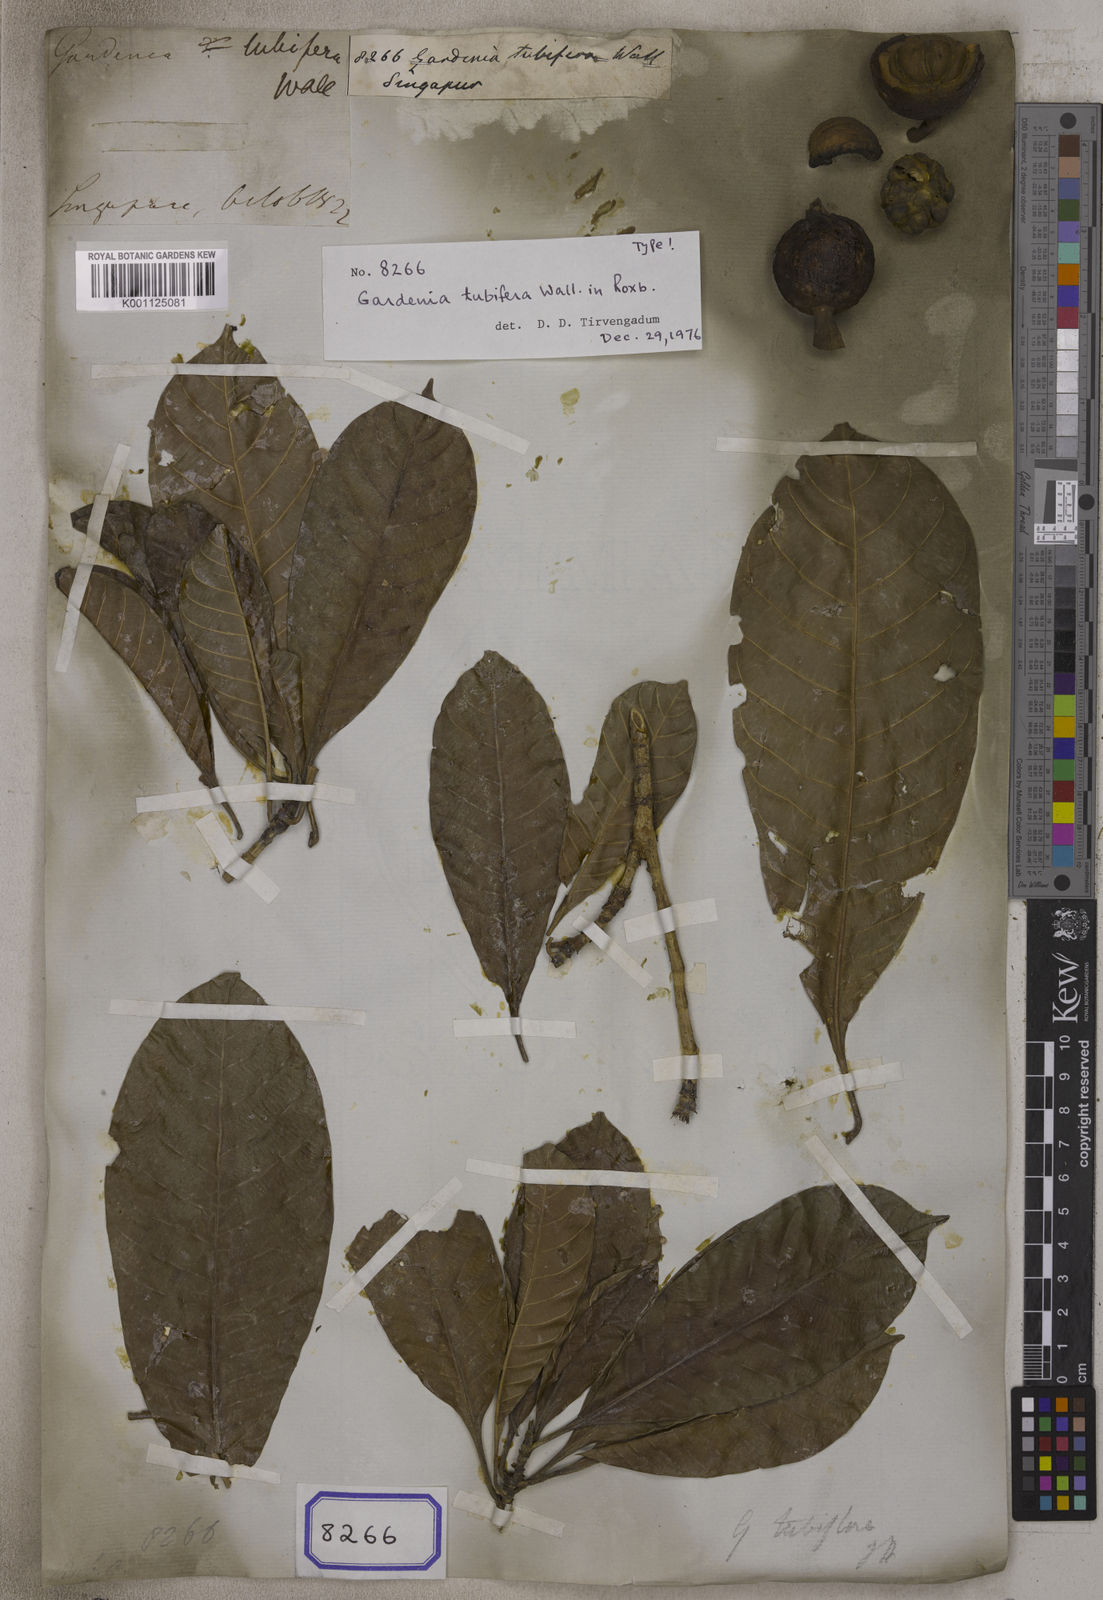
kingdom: Plantae
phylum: Tracheophyta
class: Magnoliopsida
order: Gentianales
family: Rubiaceae
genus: Gardenia
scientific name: Gardenia
